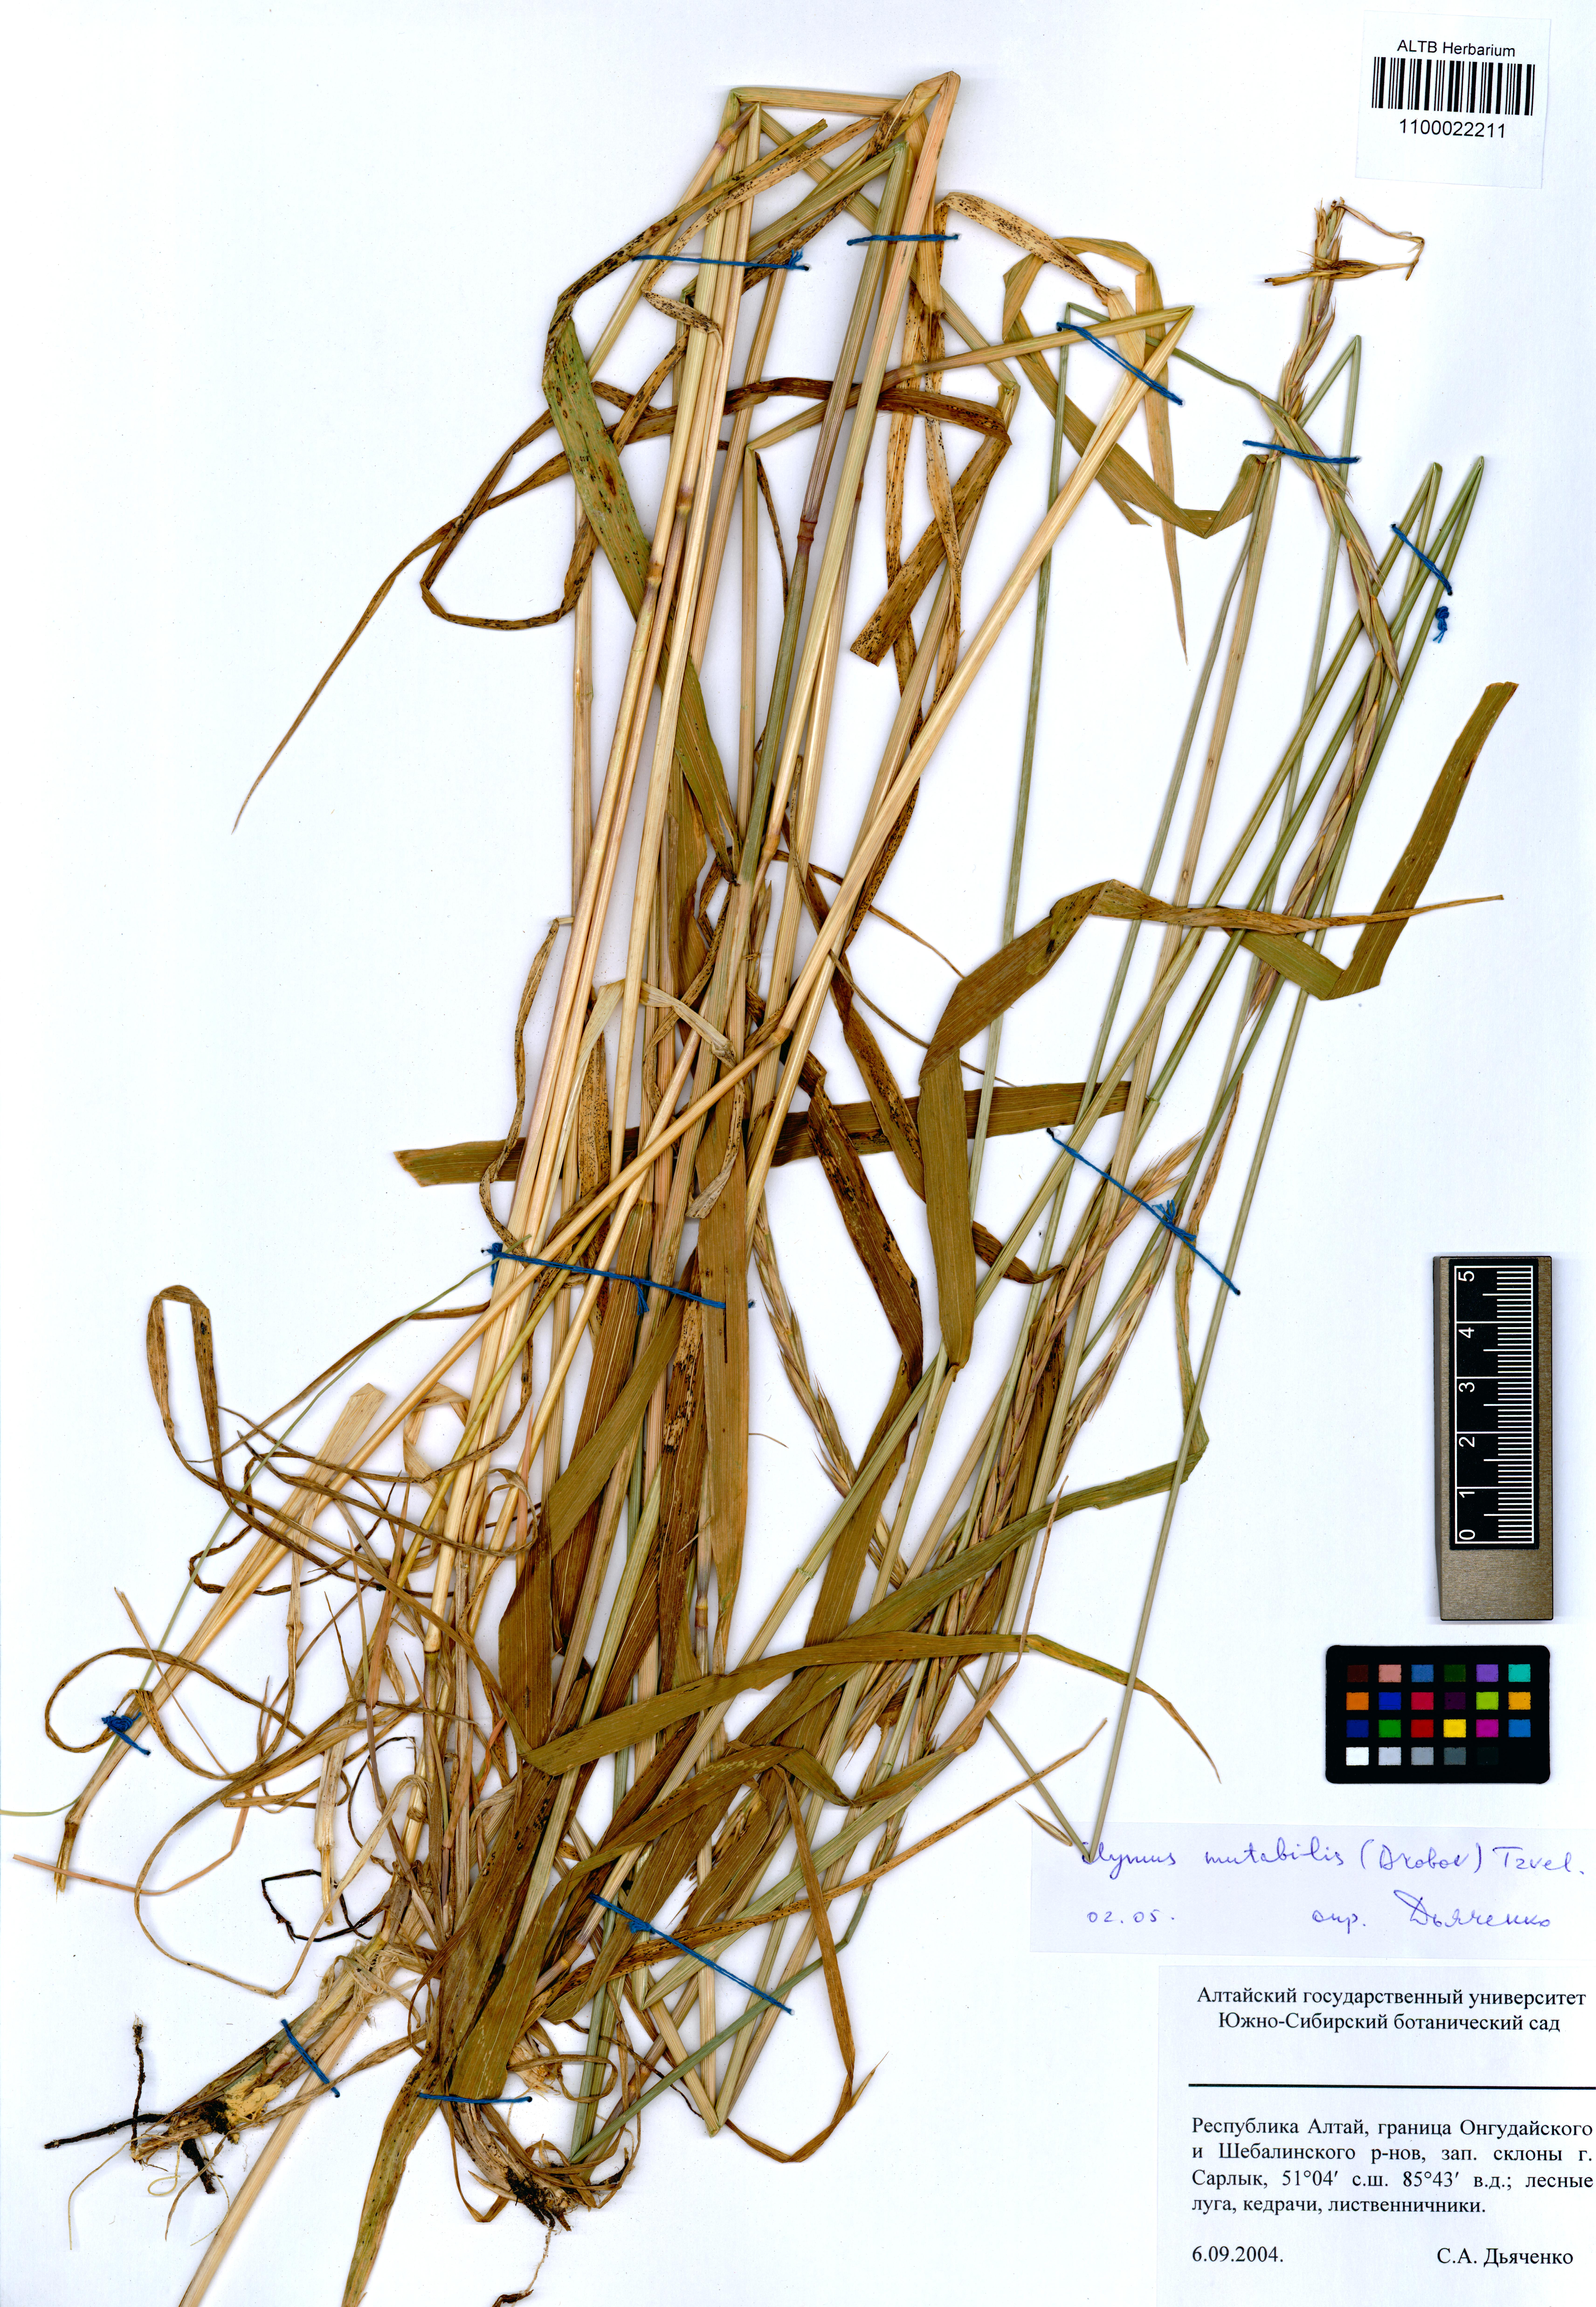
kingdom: Plantae
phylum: Tracheophyta
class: Liliopsida
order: Poales
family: Poaceae
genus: Elymus
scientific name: Elymus mutabilis
